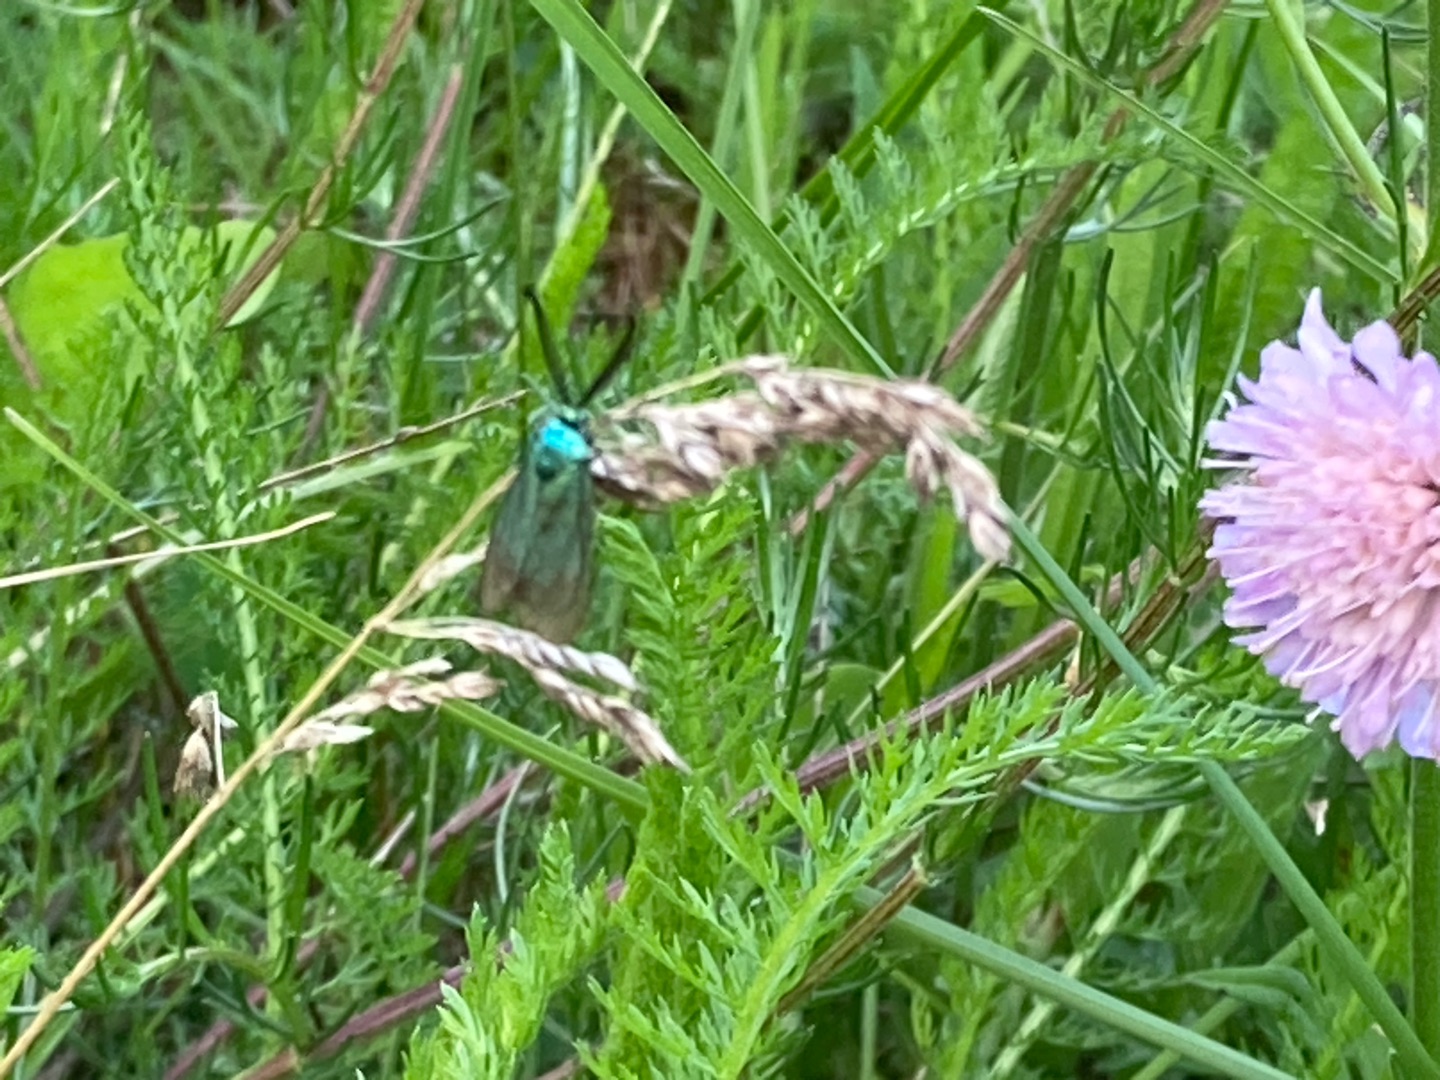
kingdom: Animalia
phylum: Arthropoda
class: Insecta
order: Lepidoptera
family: Zygaenidae
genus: Adscita
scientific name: Adscita statices
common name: Metalvinge
